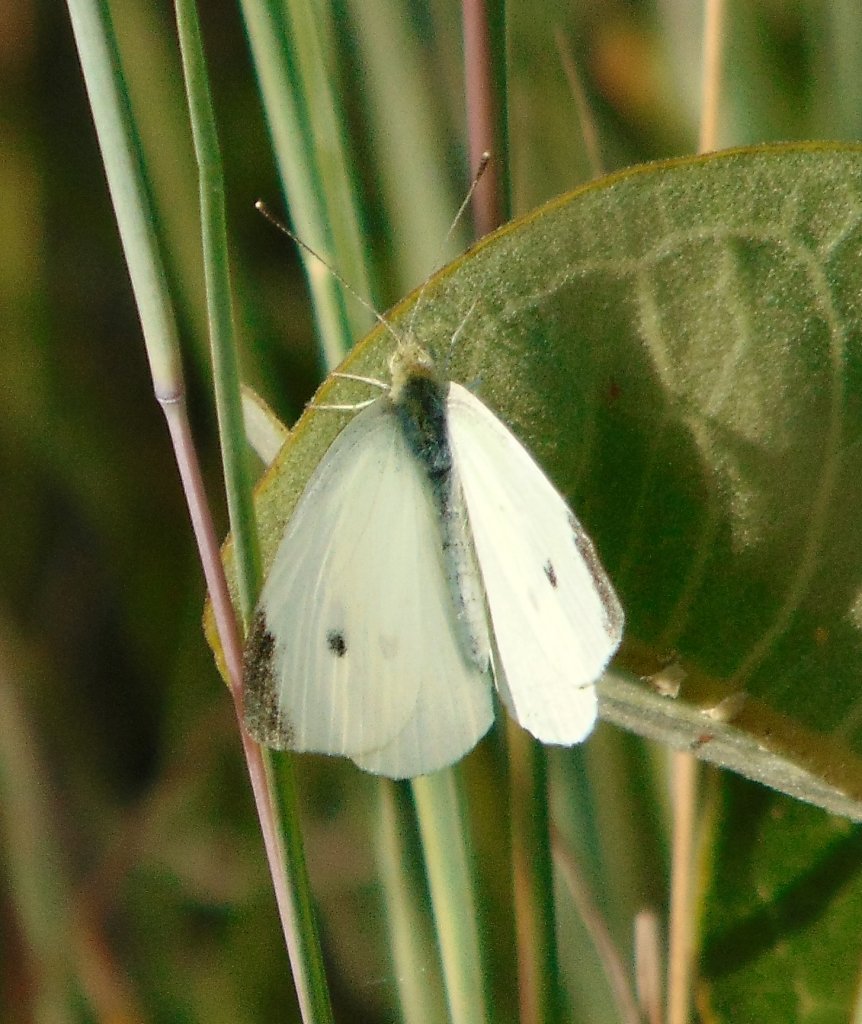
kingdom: Animalia
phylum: Arthropoda
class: Insecta
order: Lepidoptera
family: Pieridae
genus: Pieris
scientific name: Pieris rapae
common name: Cabbage White
